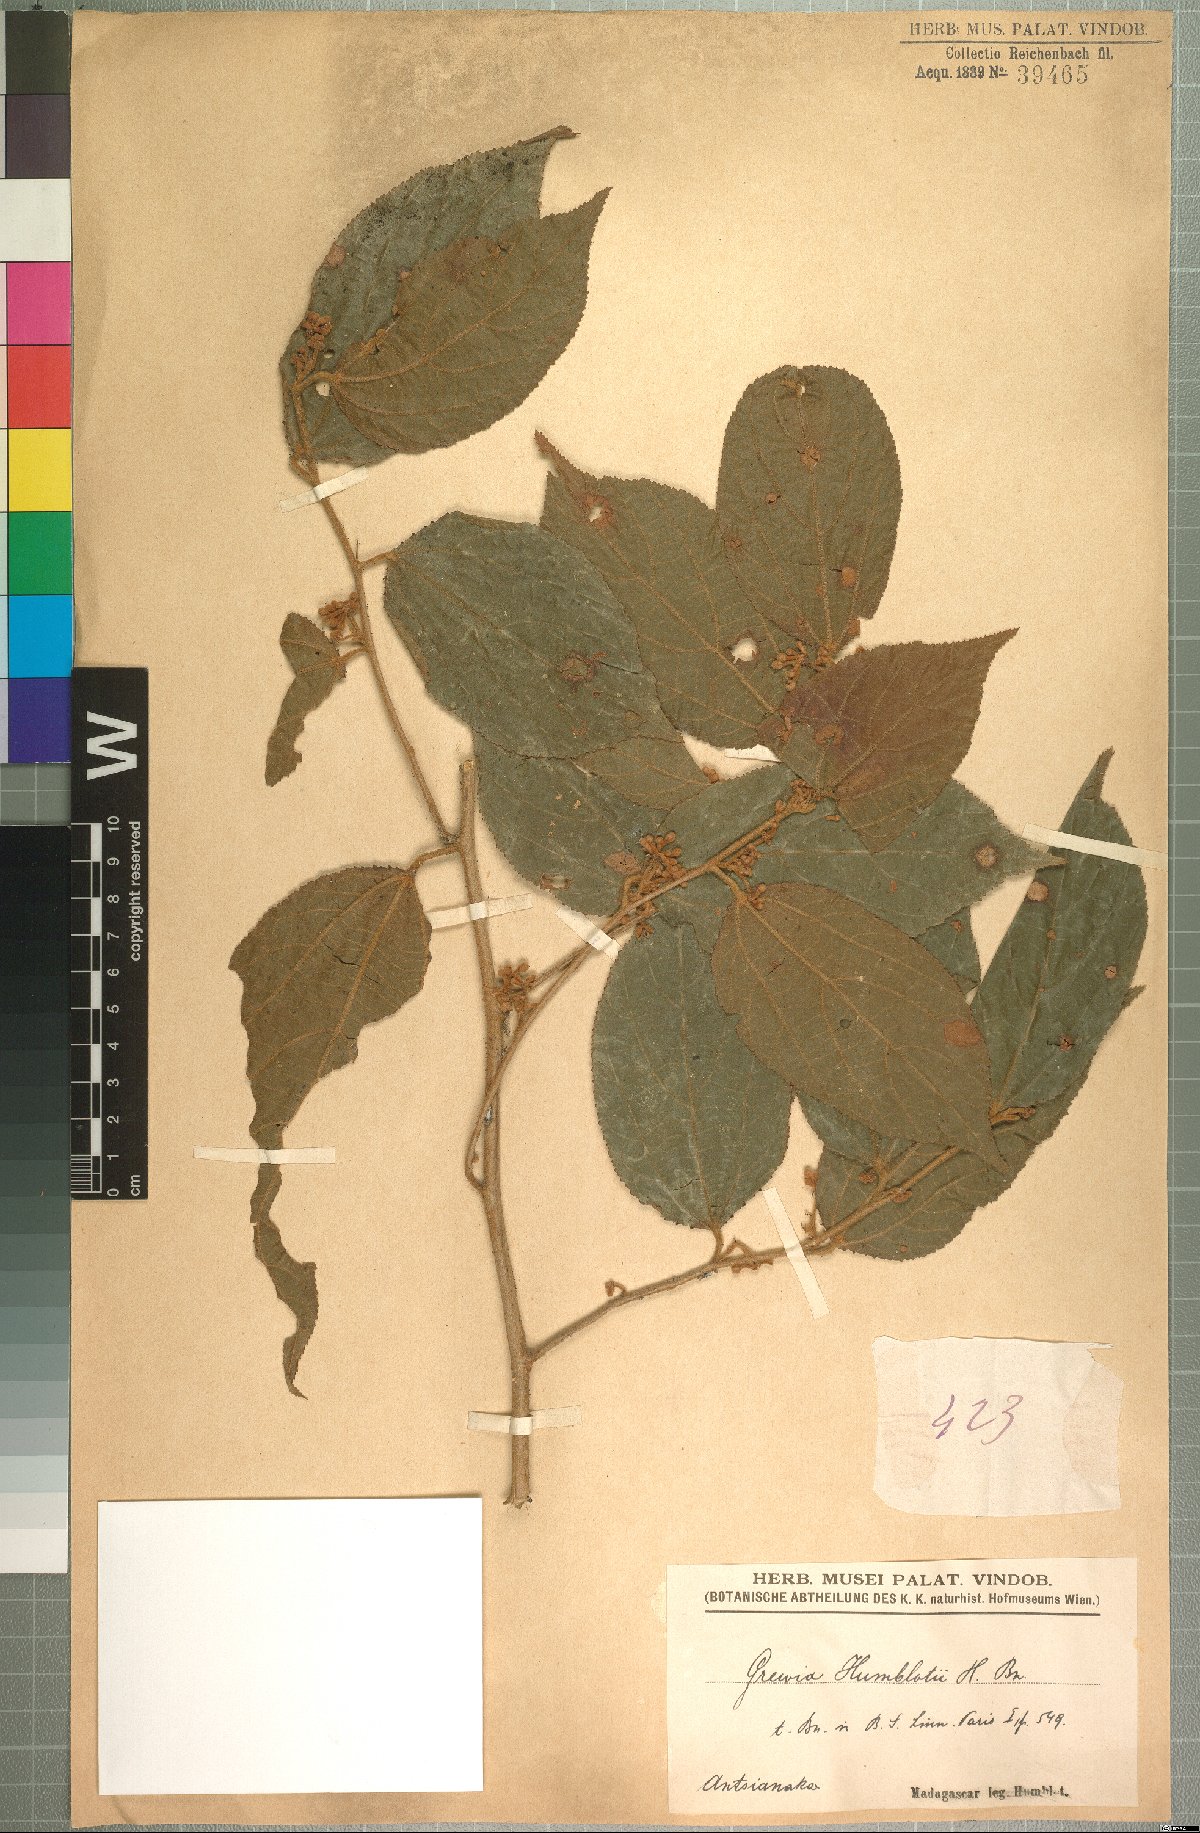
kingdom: Plantae
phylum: Tracheophyta
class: Magnoliopsida
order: Malvales
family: Malvaceae
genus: Grewia
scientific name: Grewia humblotii
